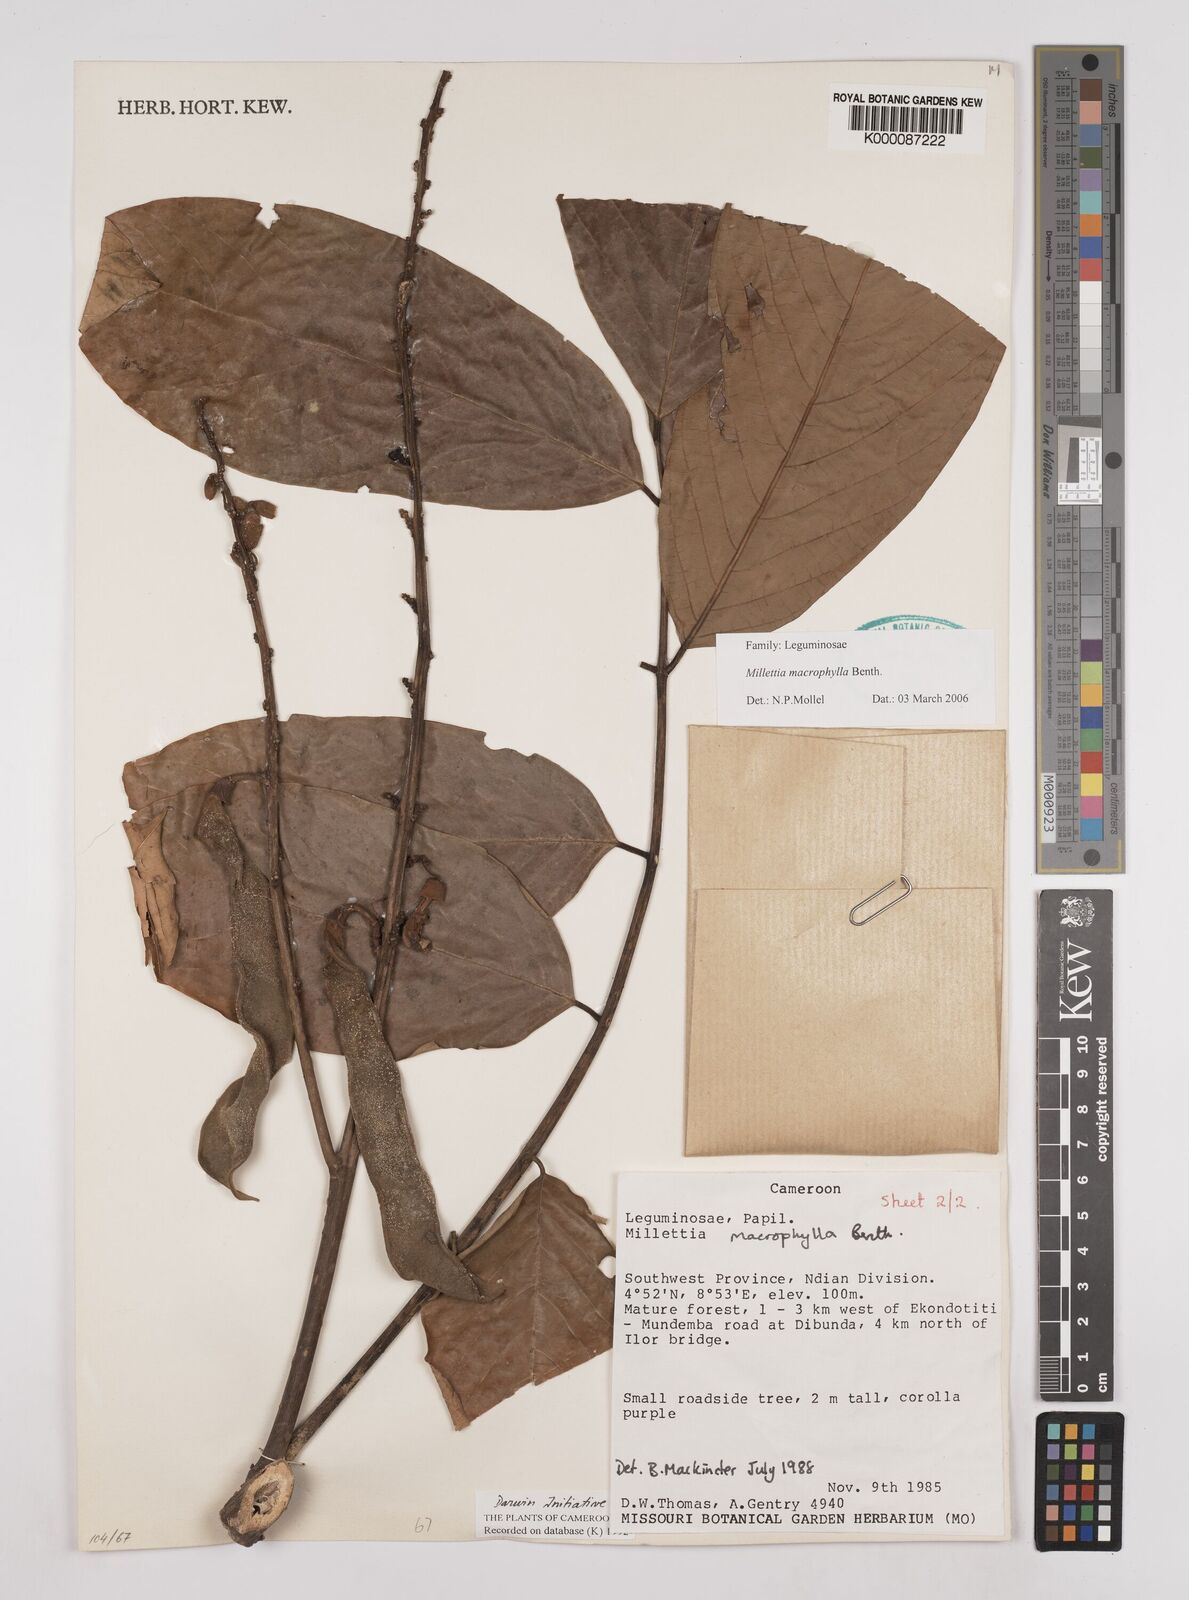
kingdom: Plantae
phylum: Tracheophyta
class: Magnoliopsida
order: Fabales
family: Fabaceae
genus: Millettia
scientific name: Millettia macrophylla
